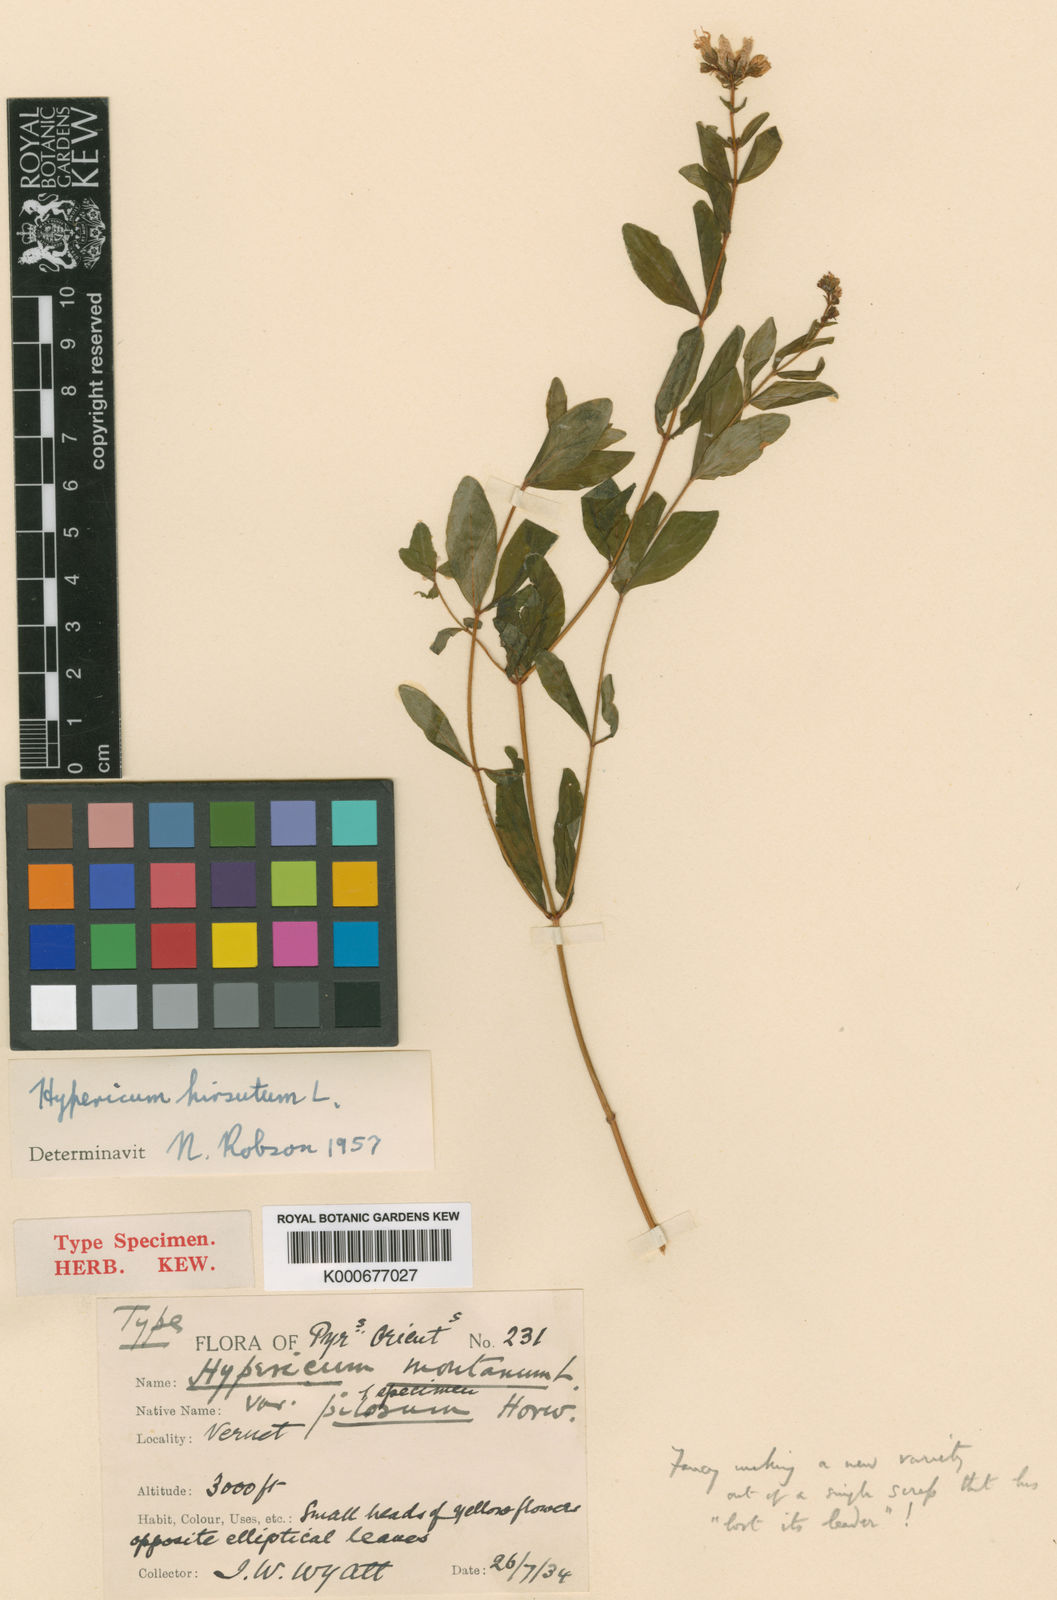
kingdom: Plantae
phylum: Tracheophyta
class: Magnoliopsida
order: Malpighiales
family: Hypericaceae
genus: Hypericum
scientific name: Hypericum hirsutum
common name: Hairy st. john's-wort
